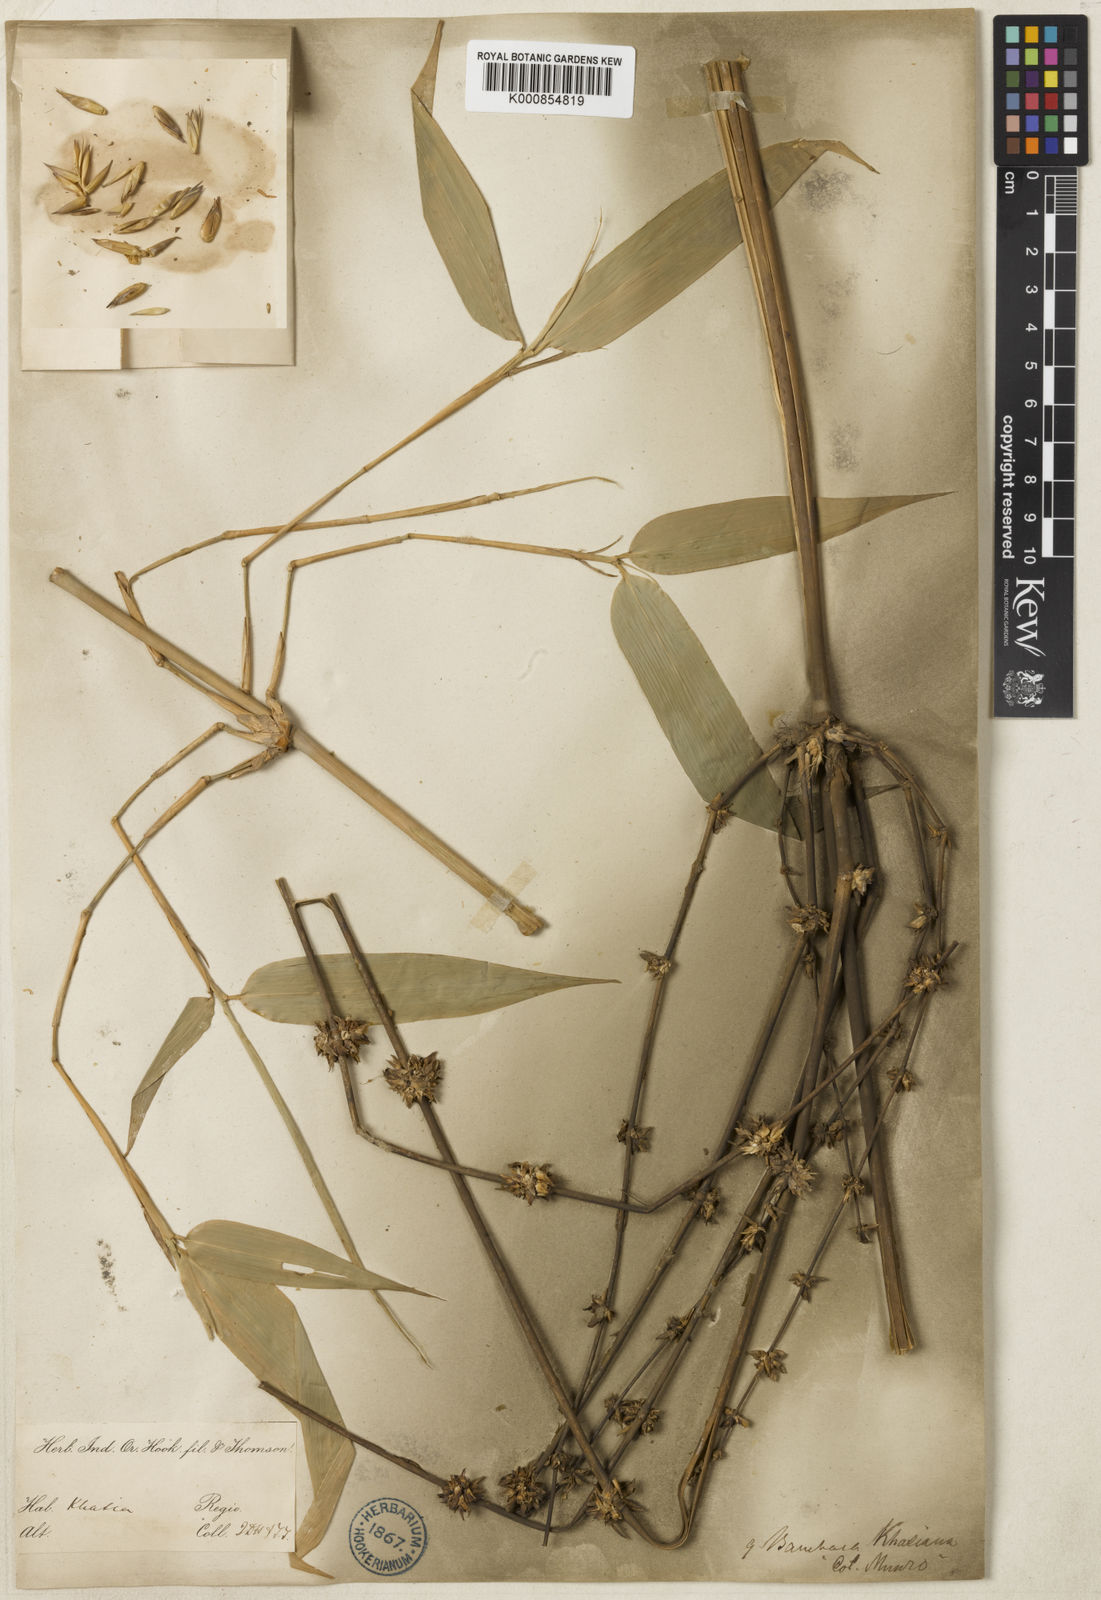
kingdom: Plantae
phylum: Tracheophyta
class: Liliopsida
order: Poales
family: Poaceae
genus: Bambusa
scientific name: Bambusa khasiana
